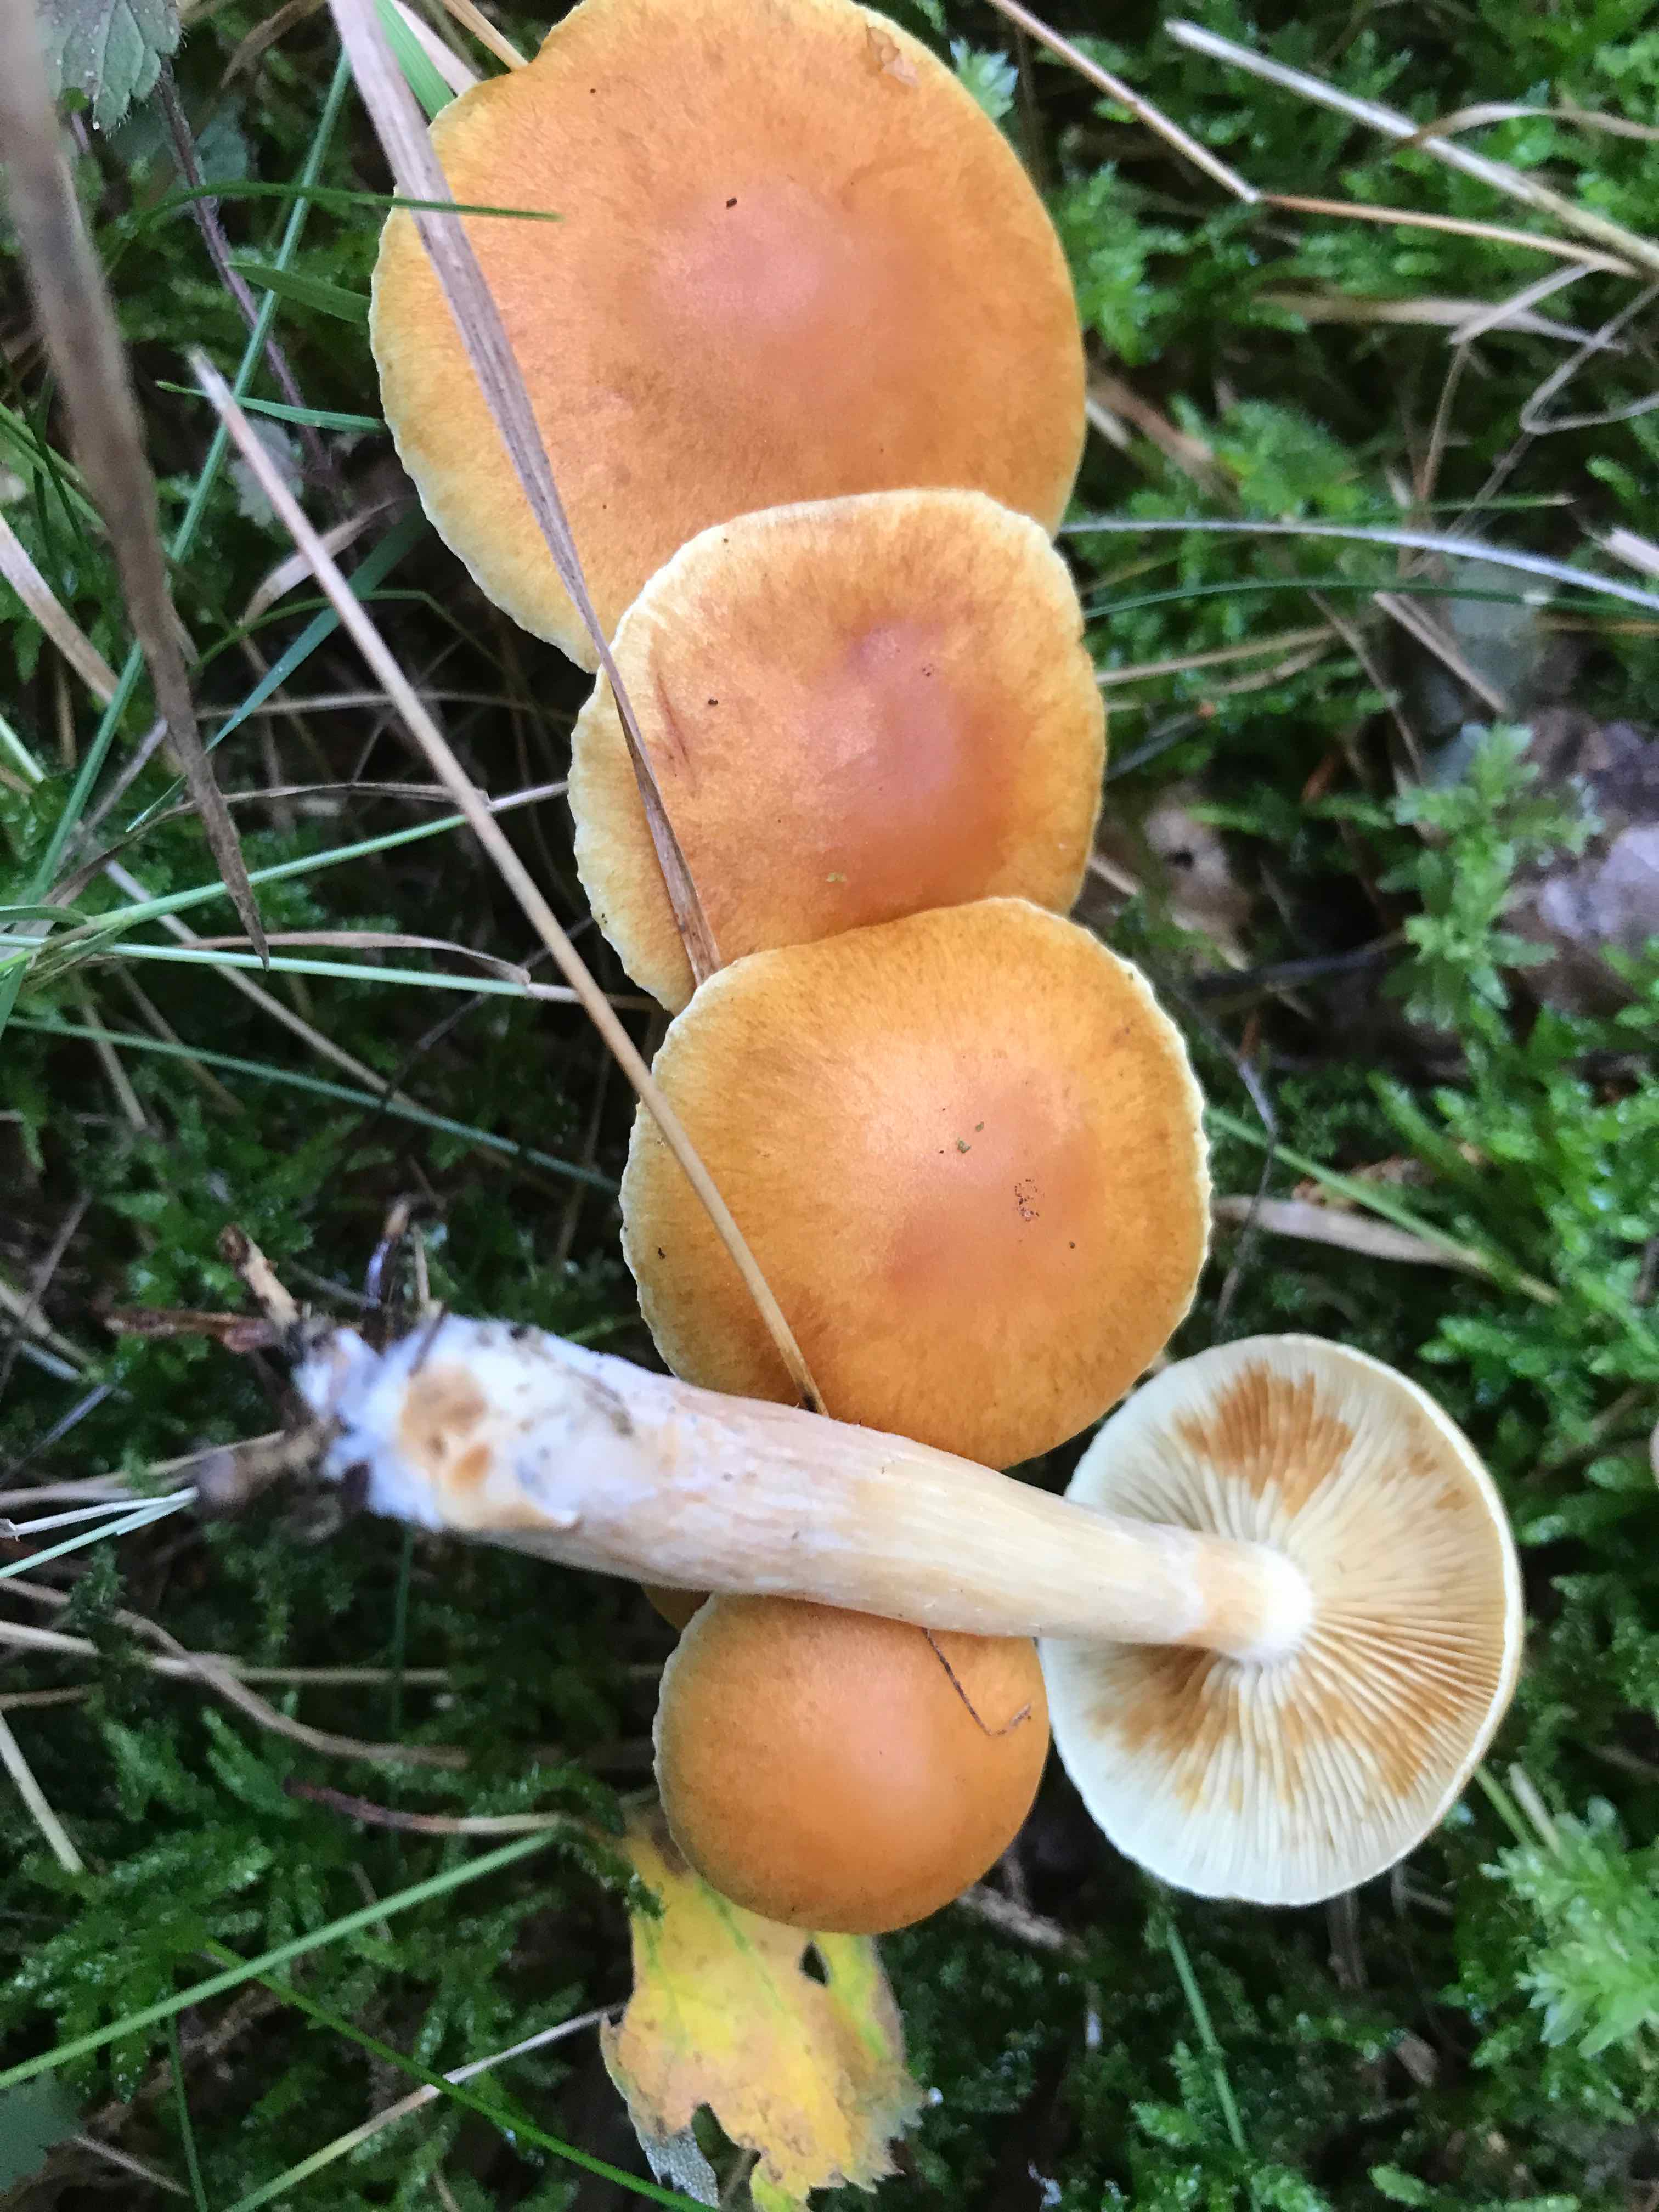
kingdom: Fungi
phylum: Basidiomycota
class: Agaricomycetes
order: Agaricales
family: Hymenogastraceae
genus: Gymnopilus
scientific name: Gymnopilus penetrans
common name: plettet flammehat
